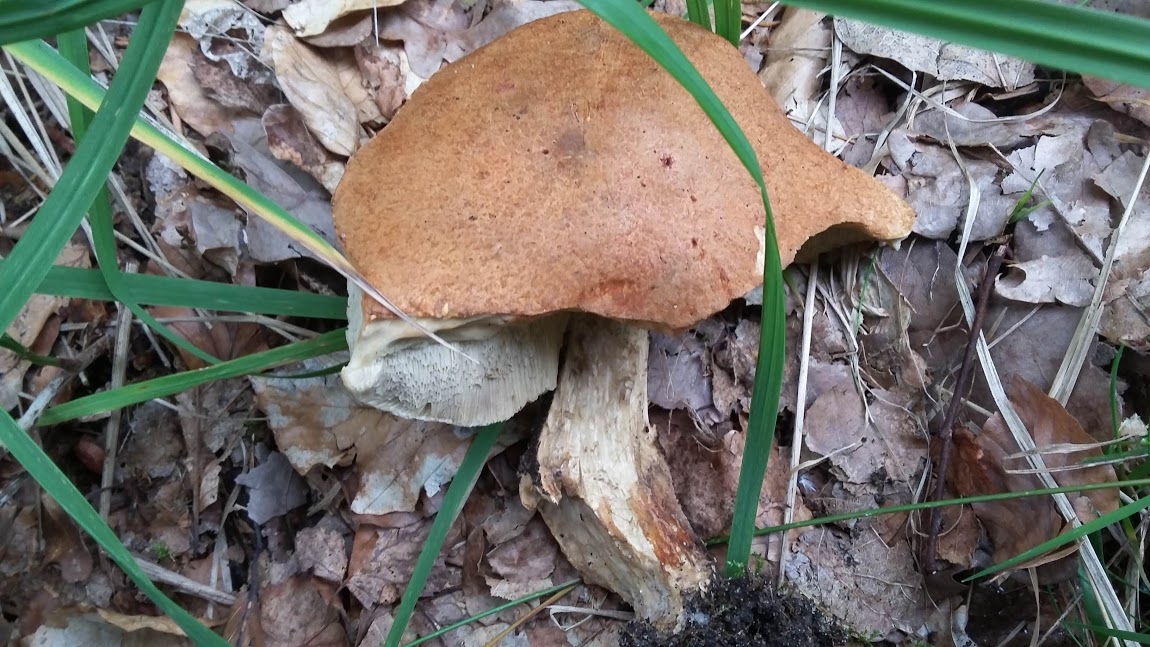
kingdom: Fungi
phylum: Basidiomycota
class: Agaricomycetes
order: Boletales
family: Boletaceae
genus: Leccinum
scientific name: Leccinum versipelle
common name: orange skælrørhat
